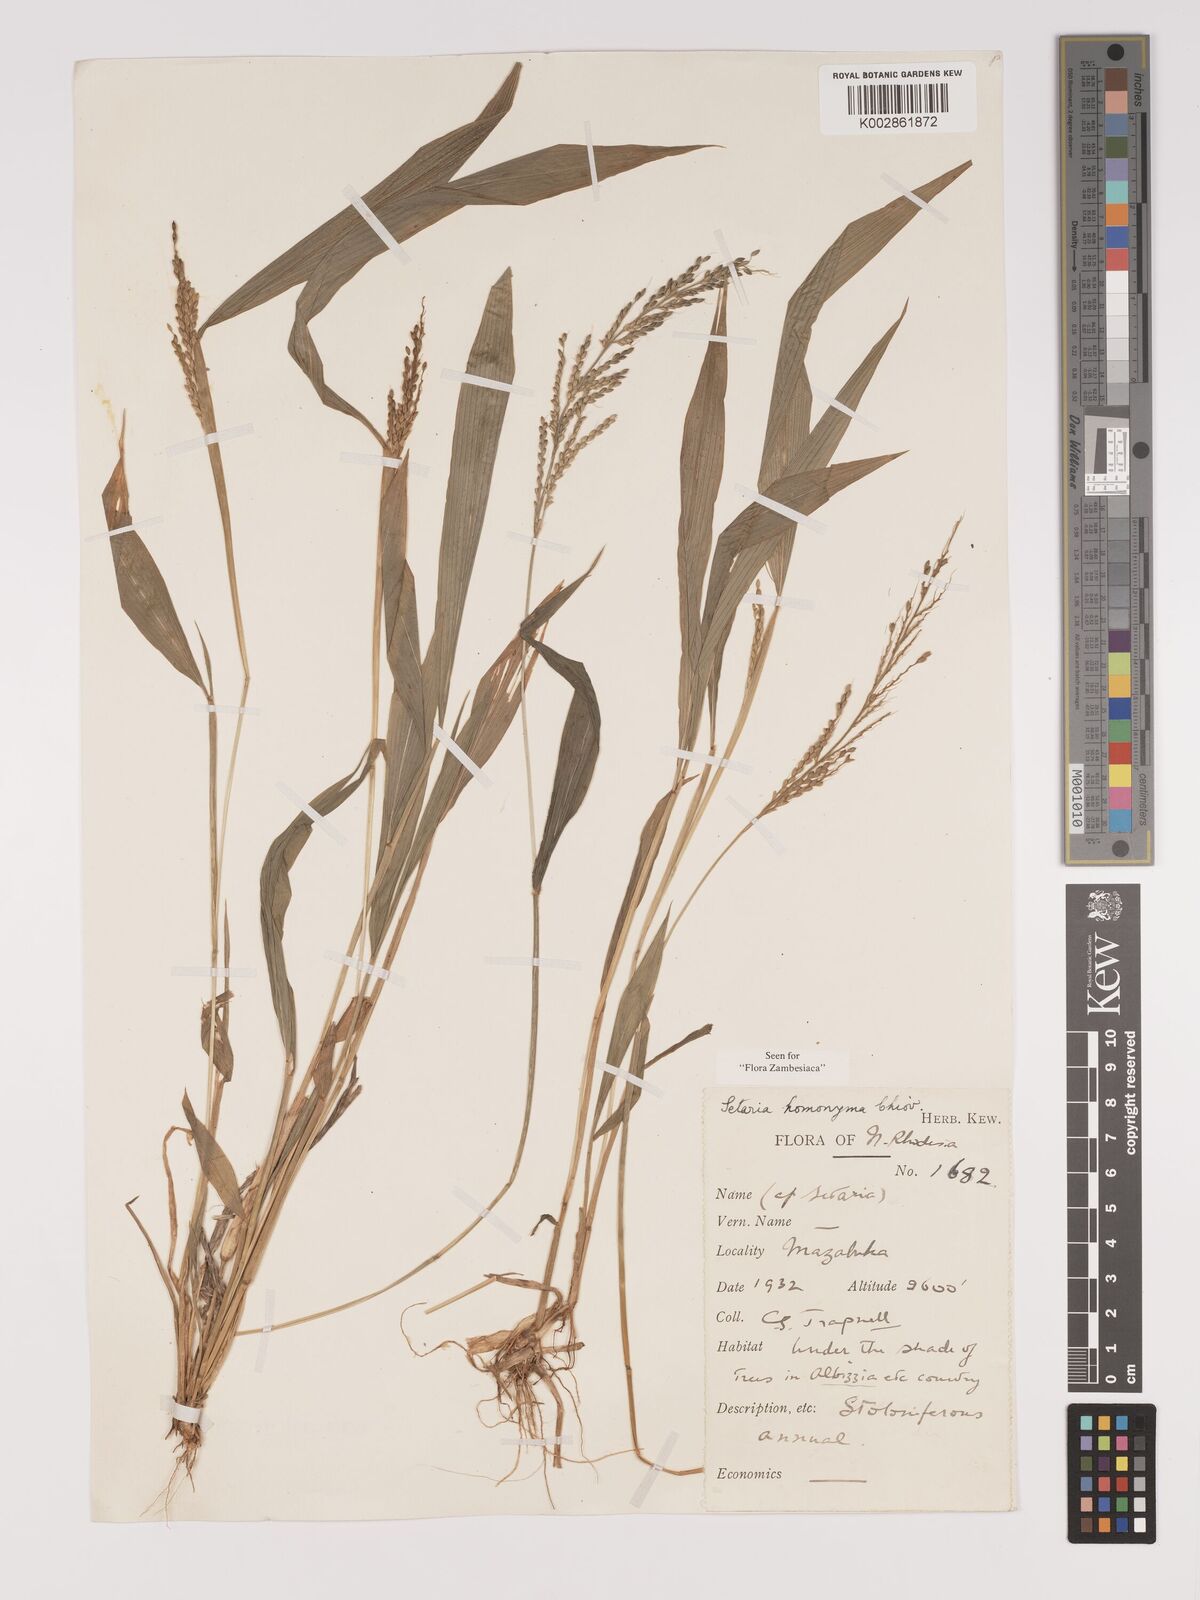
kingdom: Plantae
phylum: Tracheophyta
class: Liliopsida
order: Poales
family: Poaceae
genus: Setaria
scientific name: Setaria homonyma
